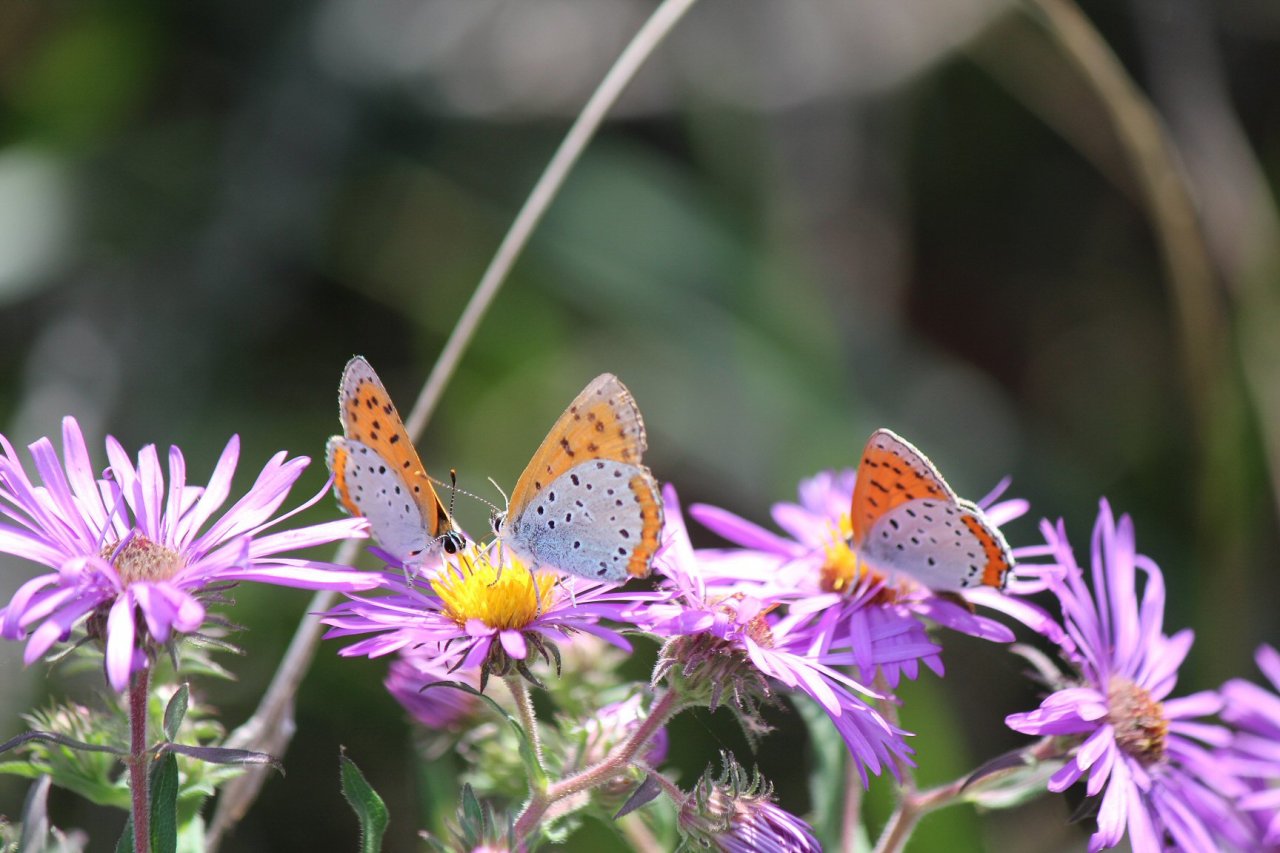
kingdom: Animalia
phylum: Arthropoda
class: Insecta
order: Lepidoptera
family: Sesiidae
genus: Sesia
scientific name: Sesia Lycaena hyllus
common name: Bronze Copper
